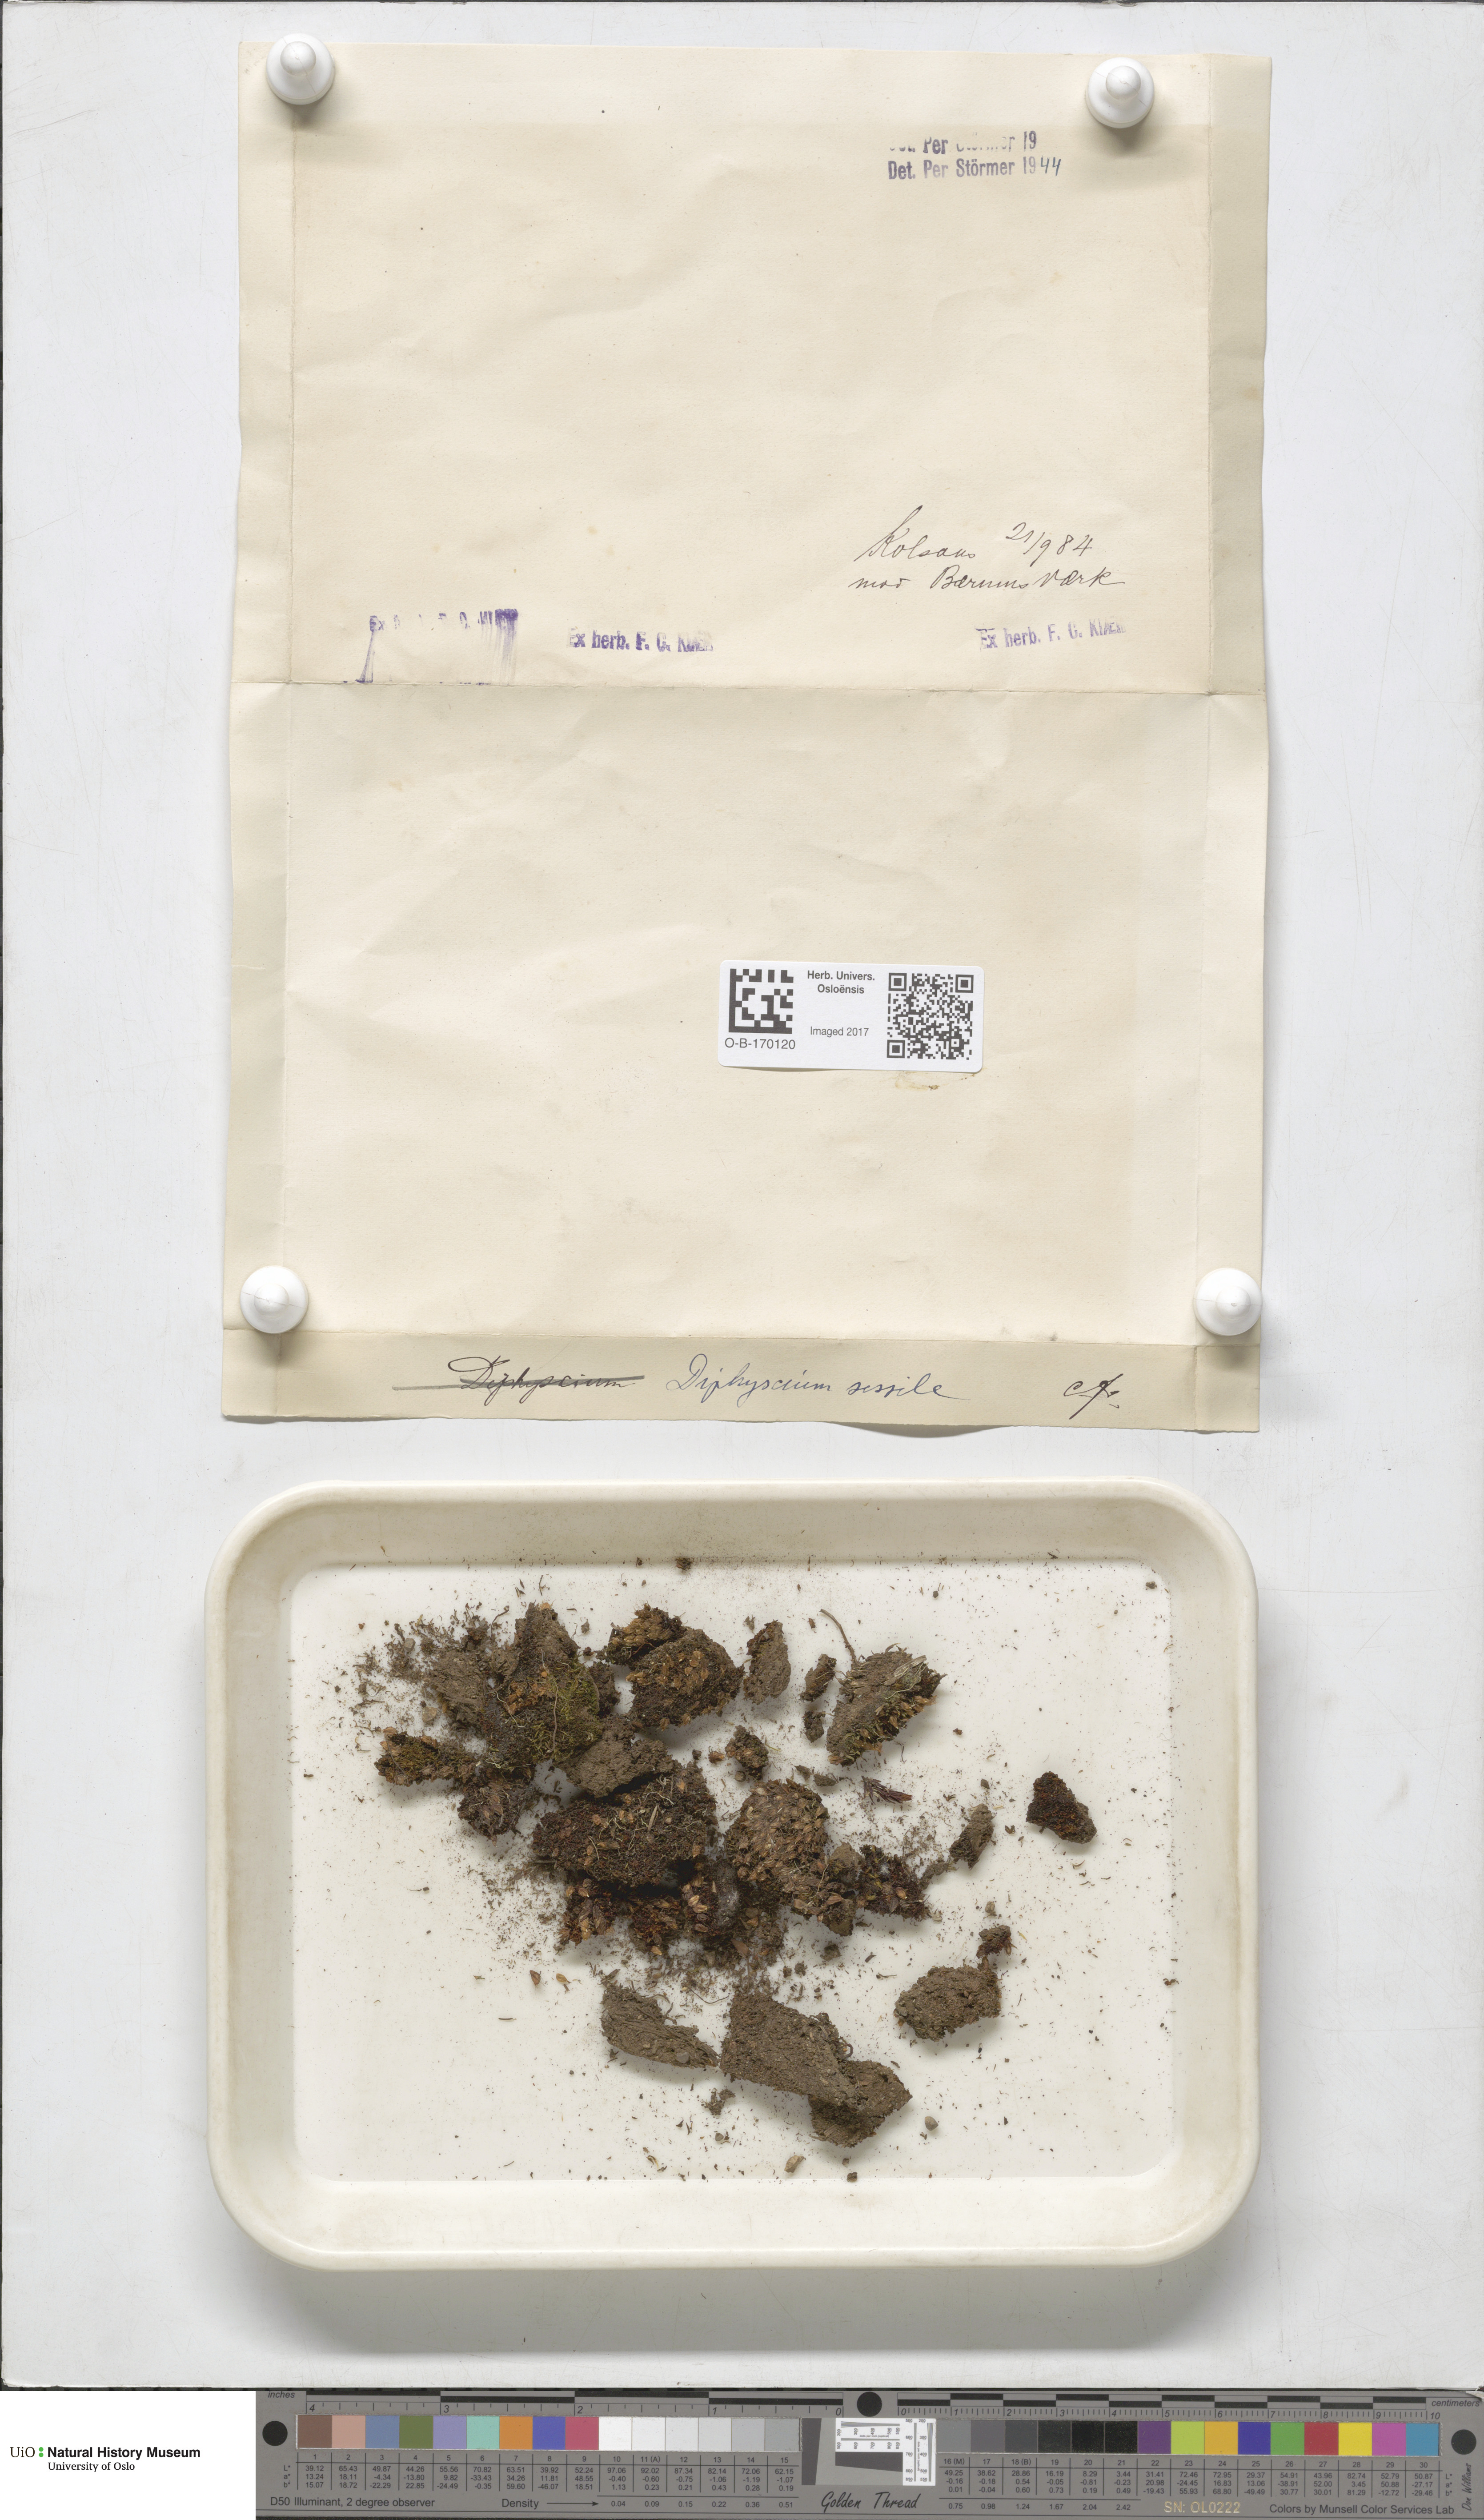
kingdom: Plantae
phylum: Bryophyta
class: Bryopsida
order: Diphysciales
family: Diphysciaceae
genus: Diphyscium
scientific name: Diphyscium foliosum
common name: Nut moss
